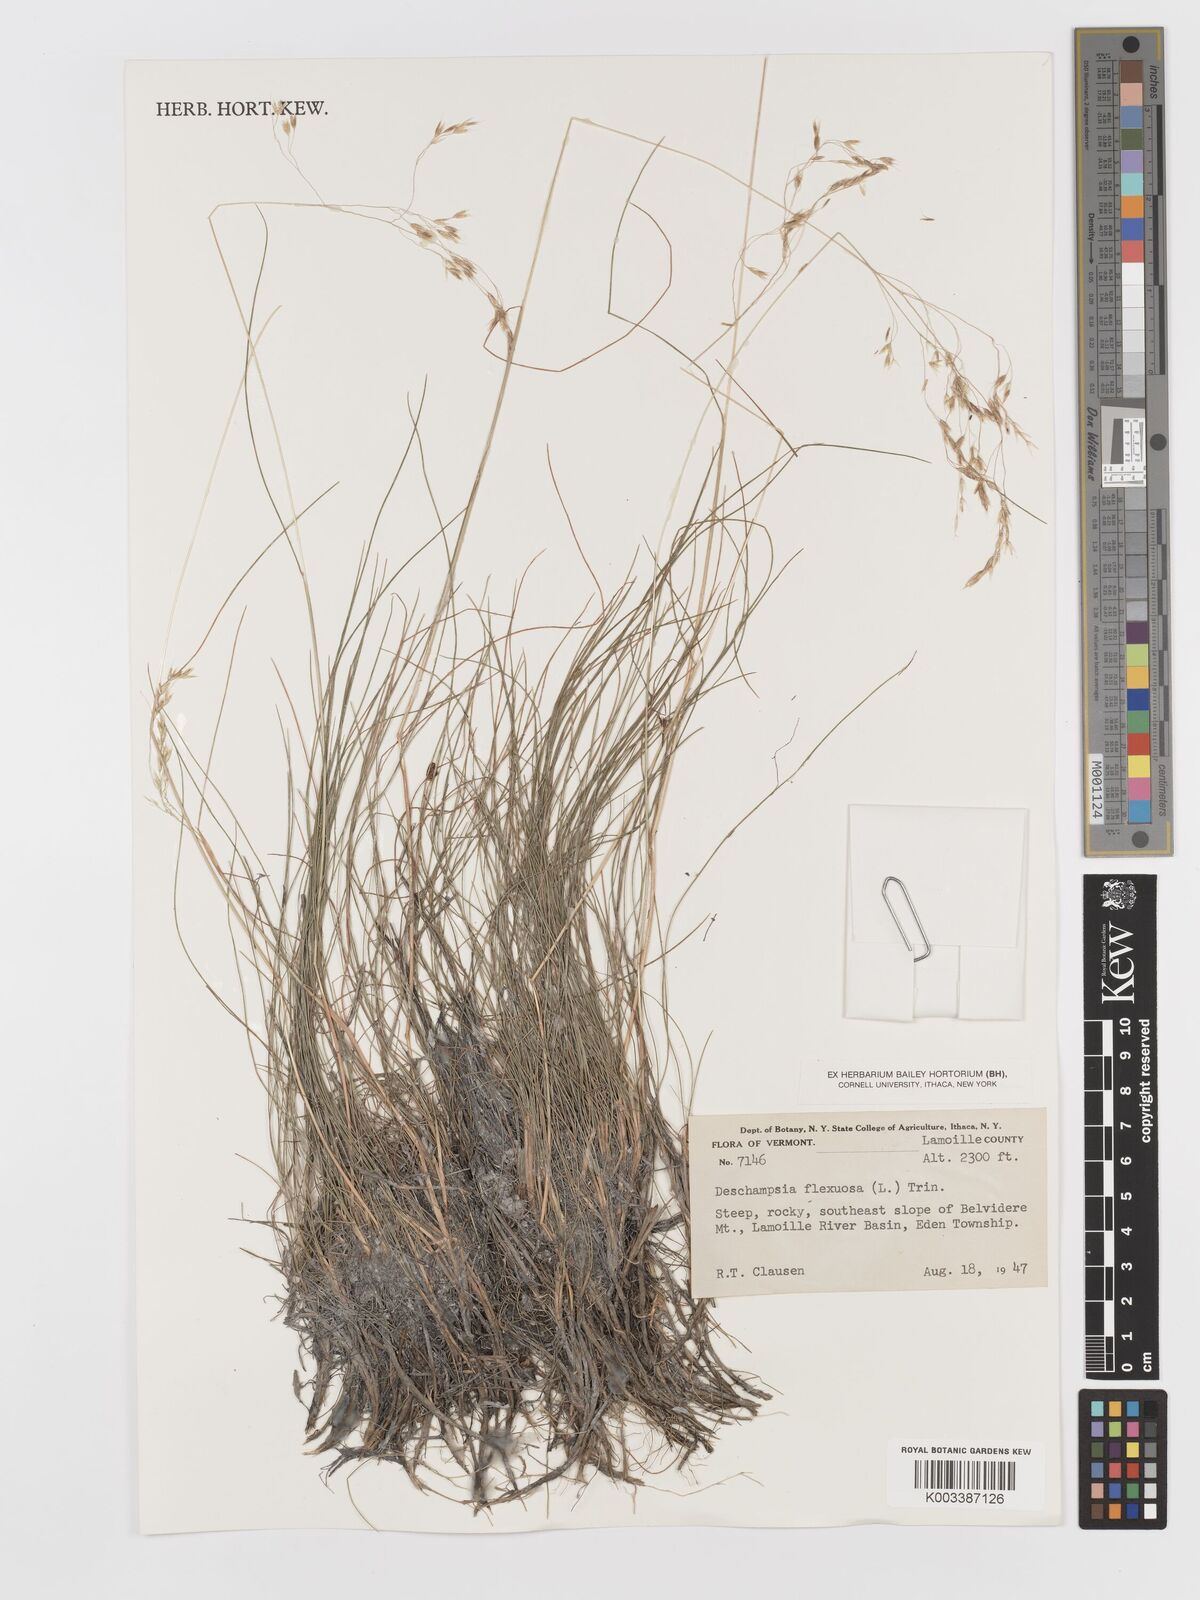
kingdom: Plantae
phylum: Tracheophyta
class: Liliopsida
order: Poales
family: Poaceae
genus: Avenella
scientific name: Avenella flexuosa
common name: Wavy hairgrass
